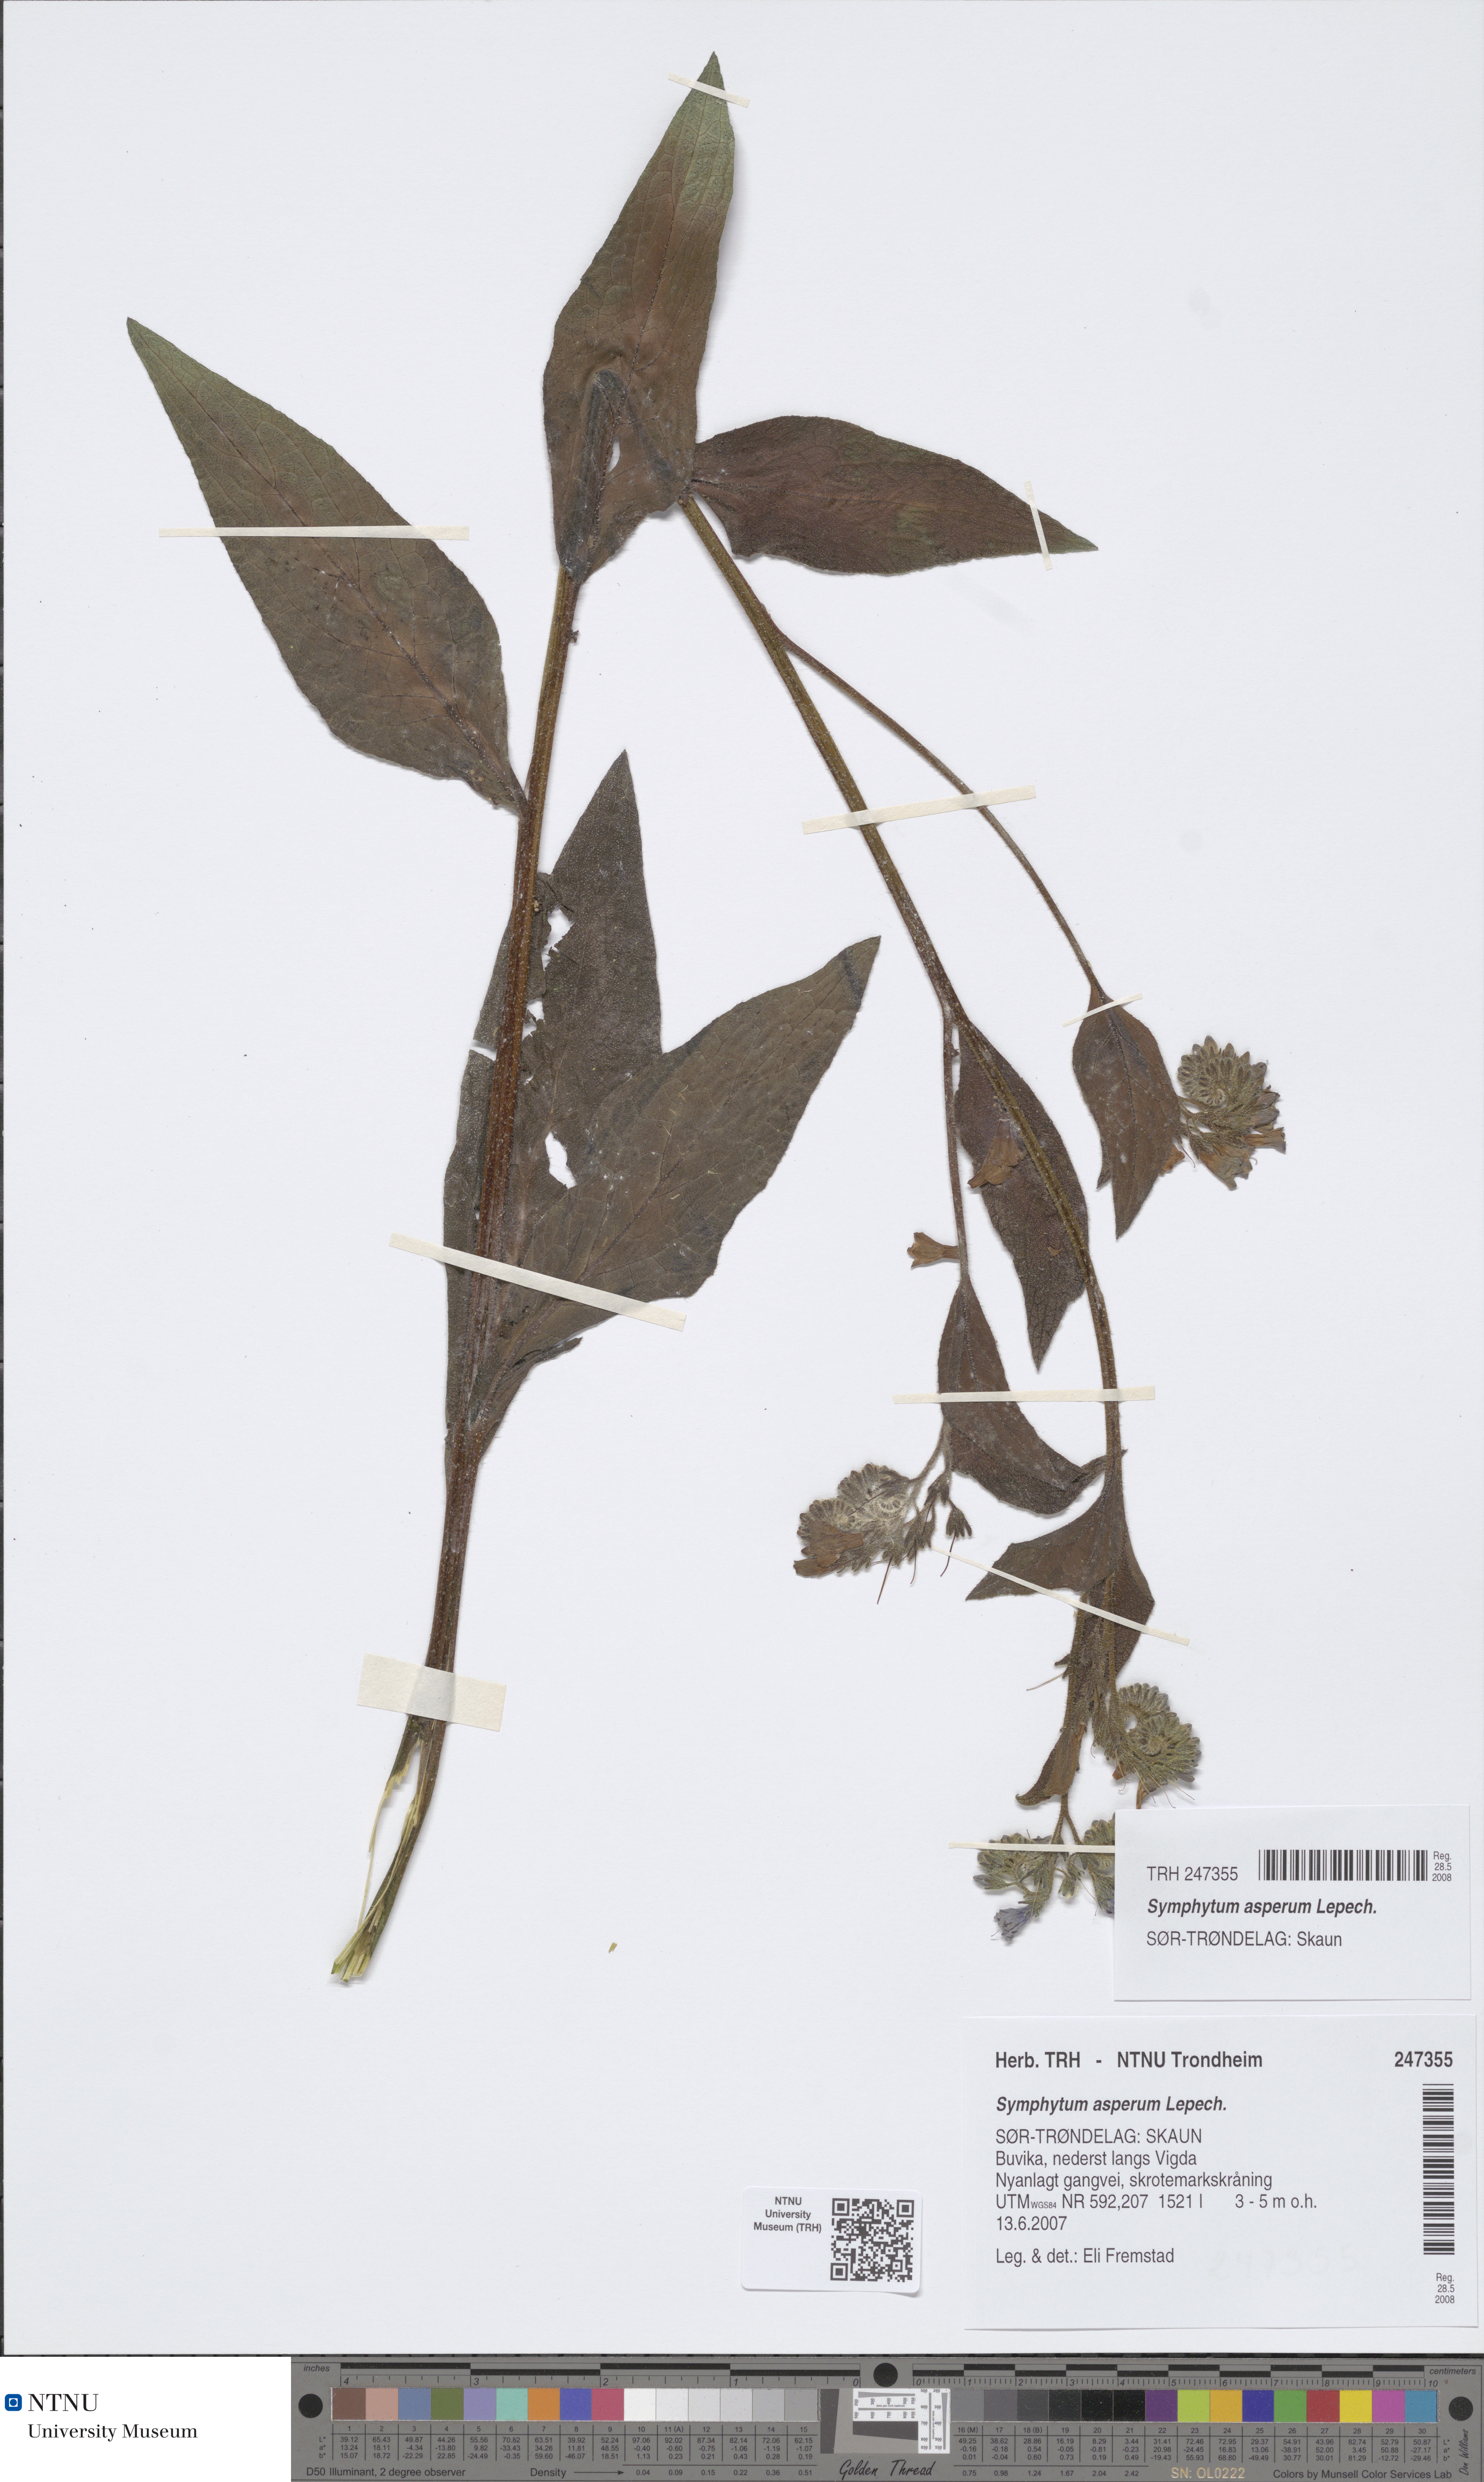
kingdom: Plantae
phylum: Tracheophyta
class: Magnoliopsida
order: Boraginales
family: Boraginaceae
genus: Symphytum
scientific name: Symphytum asperum
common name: Prickly comfrey
